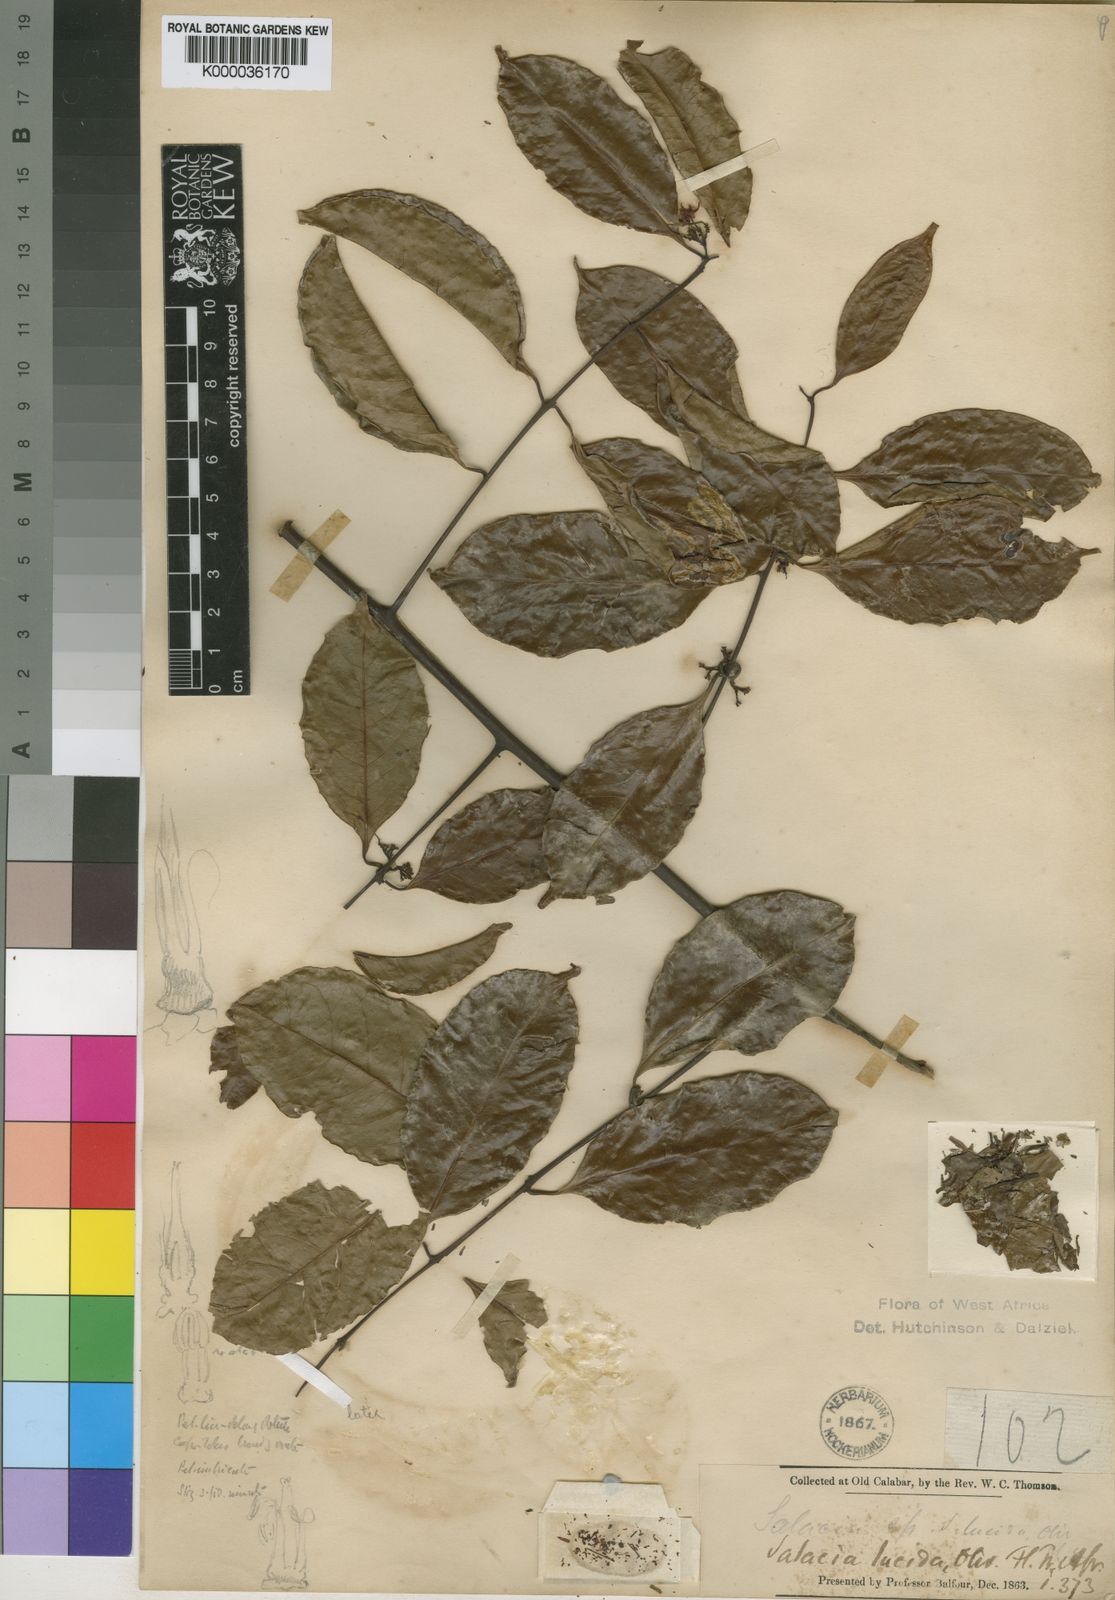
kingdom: Plantae
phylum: Tracheophyta
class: Magnoliopsida
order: Celastrales
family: Celastraceae
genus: Salacia
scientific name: Salacia lucida
